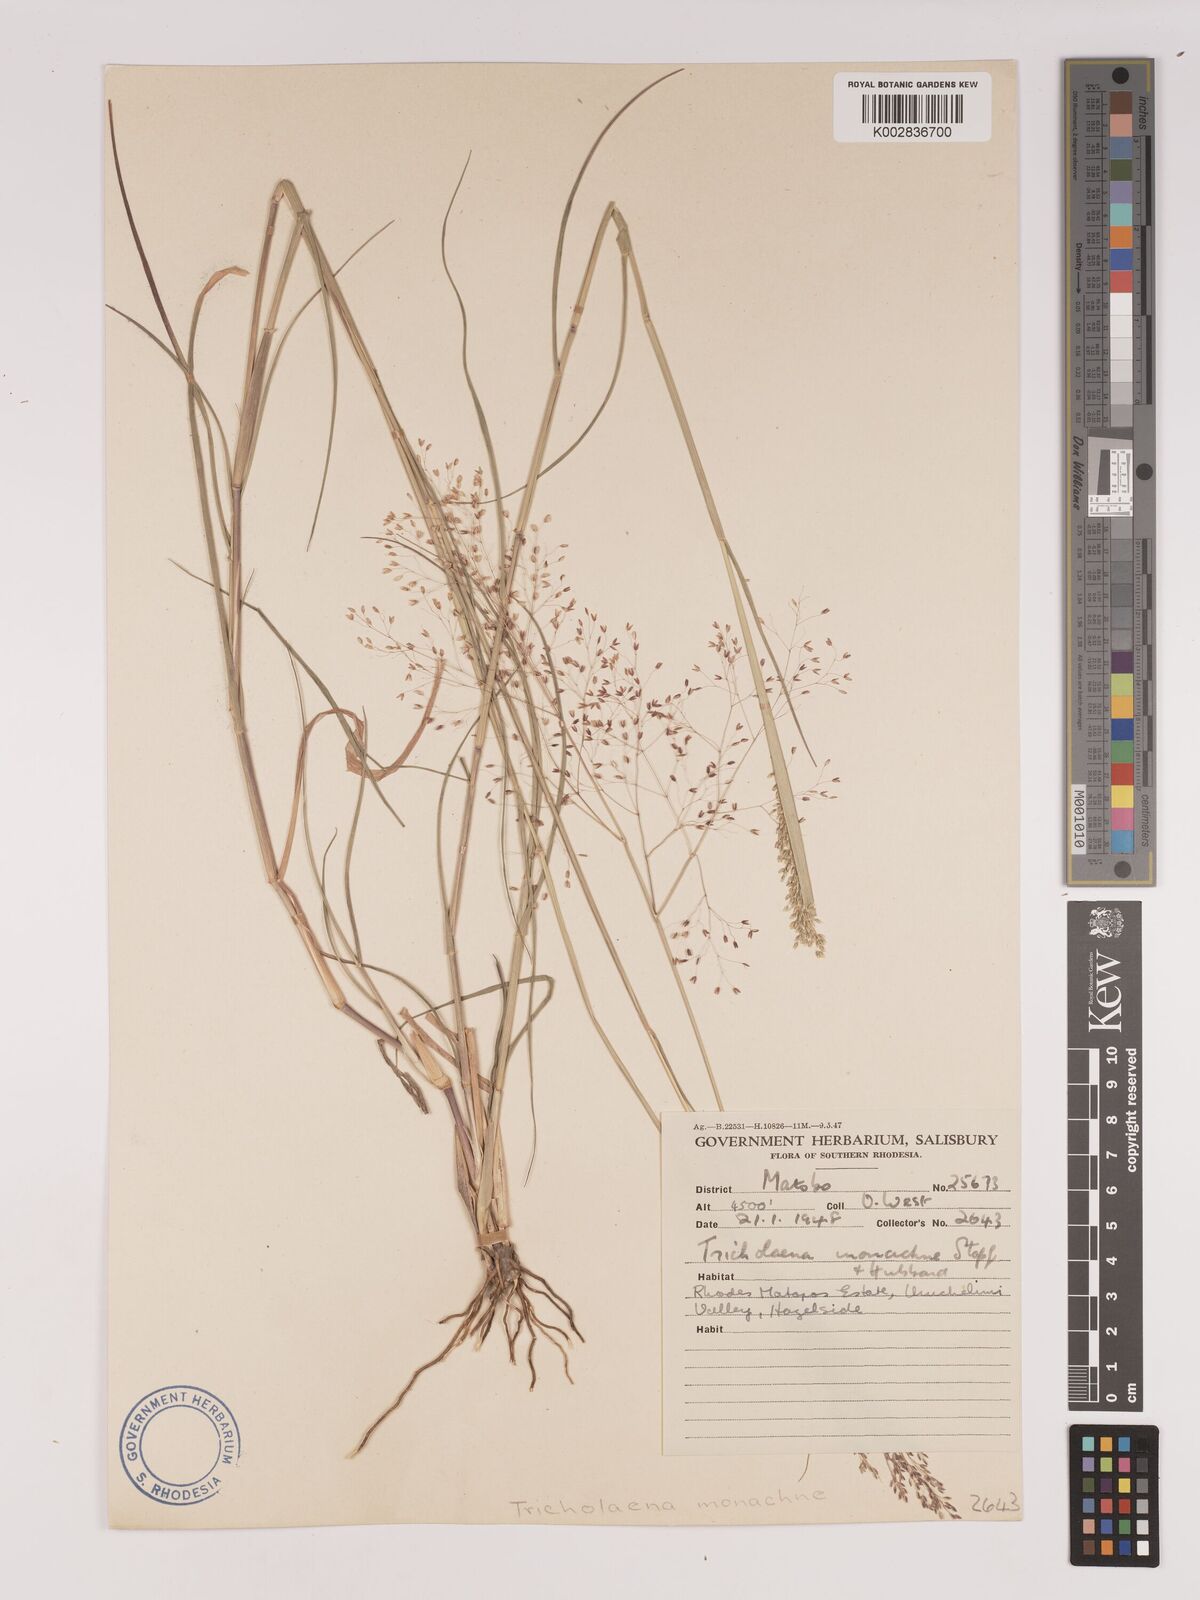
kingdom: Plantae
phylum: Tracheophyta
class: Liliopsida
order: Poales
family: Poaceae
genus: Tricholaena
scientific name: Tricholaena monachne
